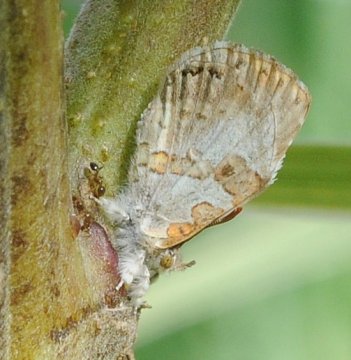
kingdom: Animalia
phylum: Arthropoda
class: Insecta
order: Lepidoptera
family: Lycaenidae
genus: Lachnocnema
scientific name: Lachnocnema bibulus
